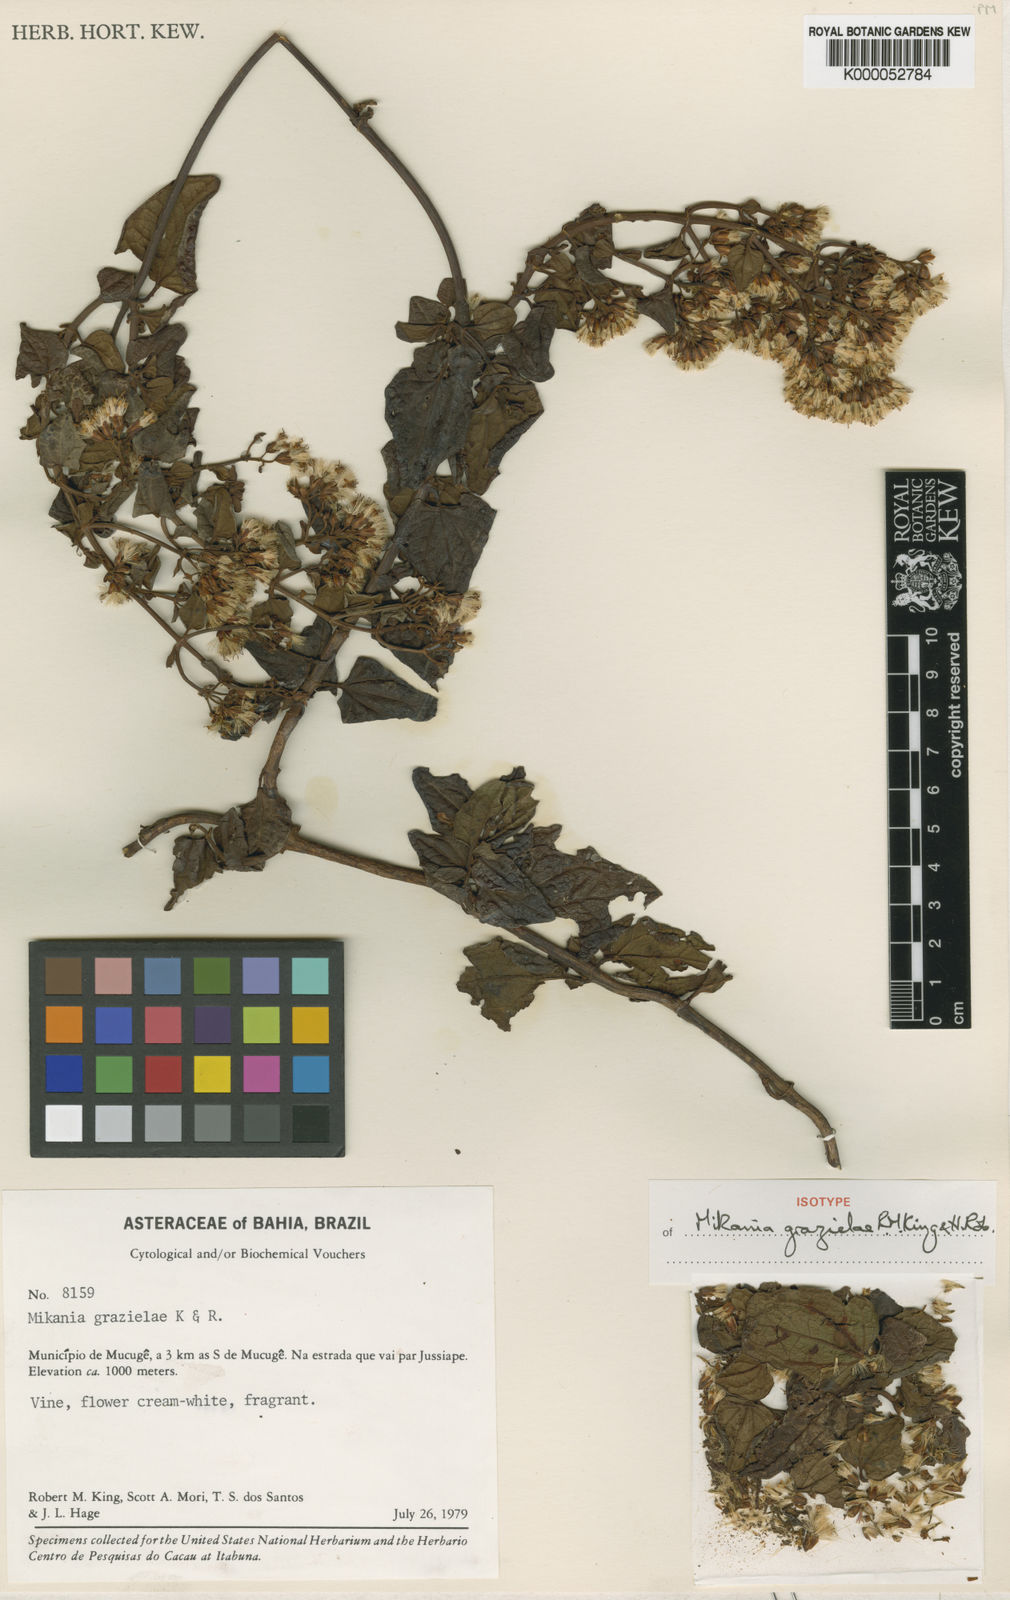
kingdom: Plantae
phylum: Tracheophyta
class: Magnoliopsida
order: Asterales
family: Asteraceae
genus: Mikania
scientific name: Mikania grazielae
